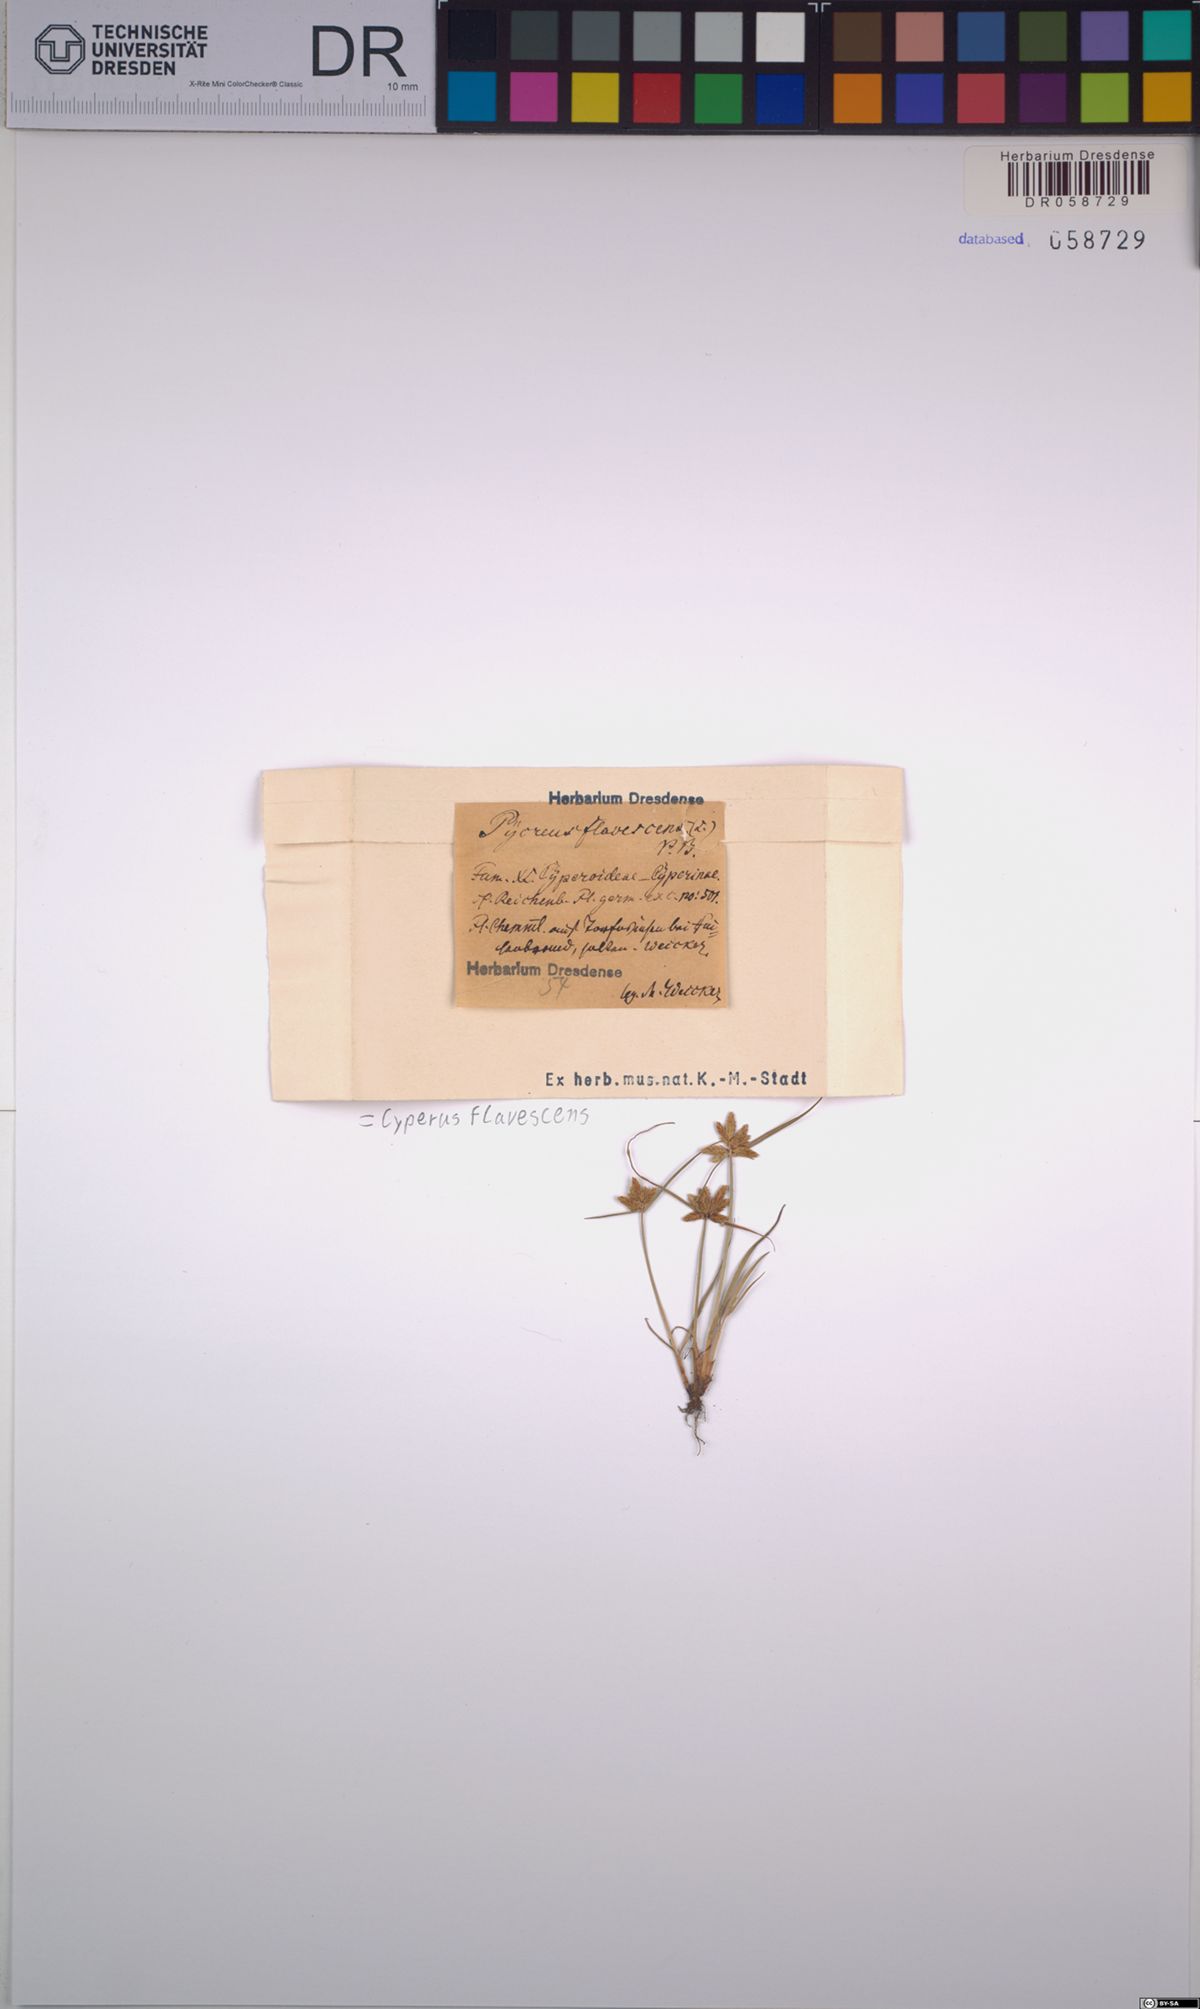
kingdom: Plantae
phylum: Tracheophyta
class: Liliopsida
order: Poales
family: Cyperaceae
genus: Cyperus
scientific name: Cyperus flavescens
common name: Yellow galingale
